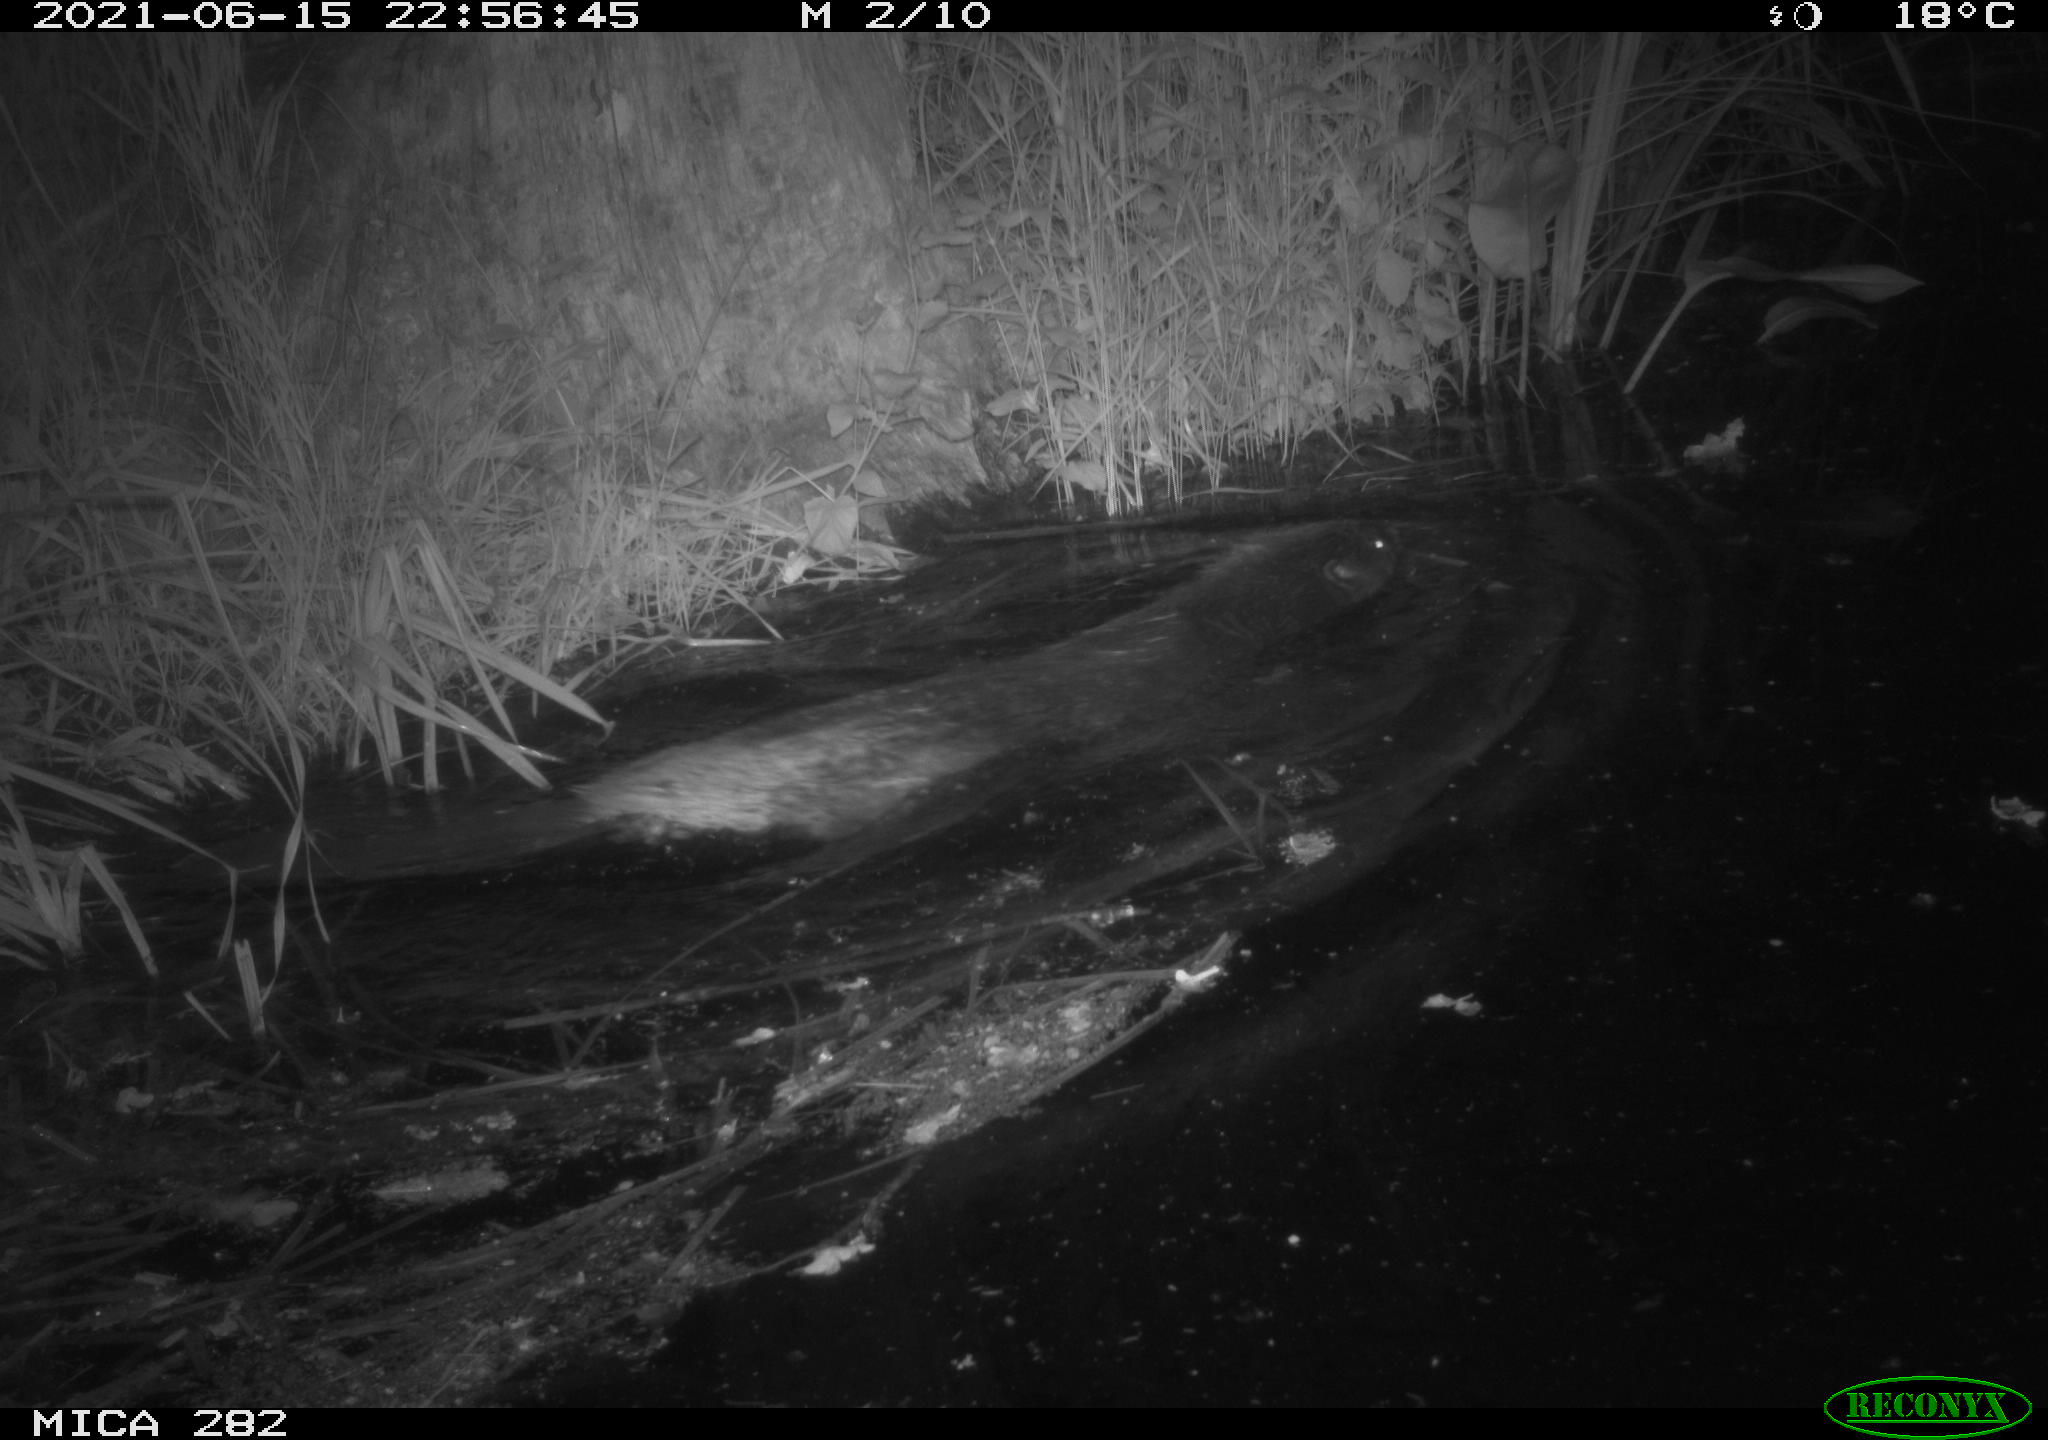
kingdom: Animalia
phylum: Chordata
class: Mammalia
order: Rodentia
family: Castoridae
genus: Castor
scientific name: Castor fiber
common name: Eurasian beaver
